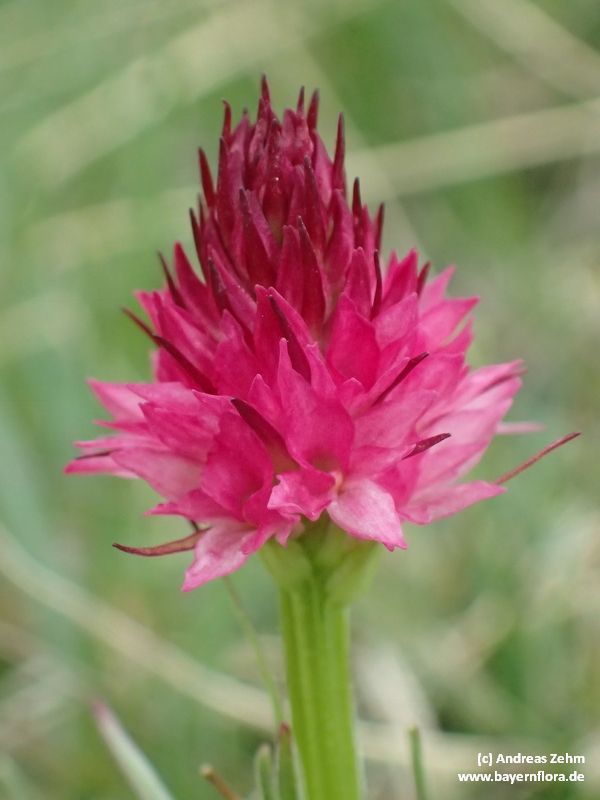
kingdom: Plantae
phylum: Tracheophyta
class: Liliopsida
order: Asparagales
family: Orchidaceae
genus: Gymnadenia
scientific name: Gymnadenia widderi
